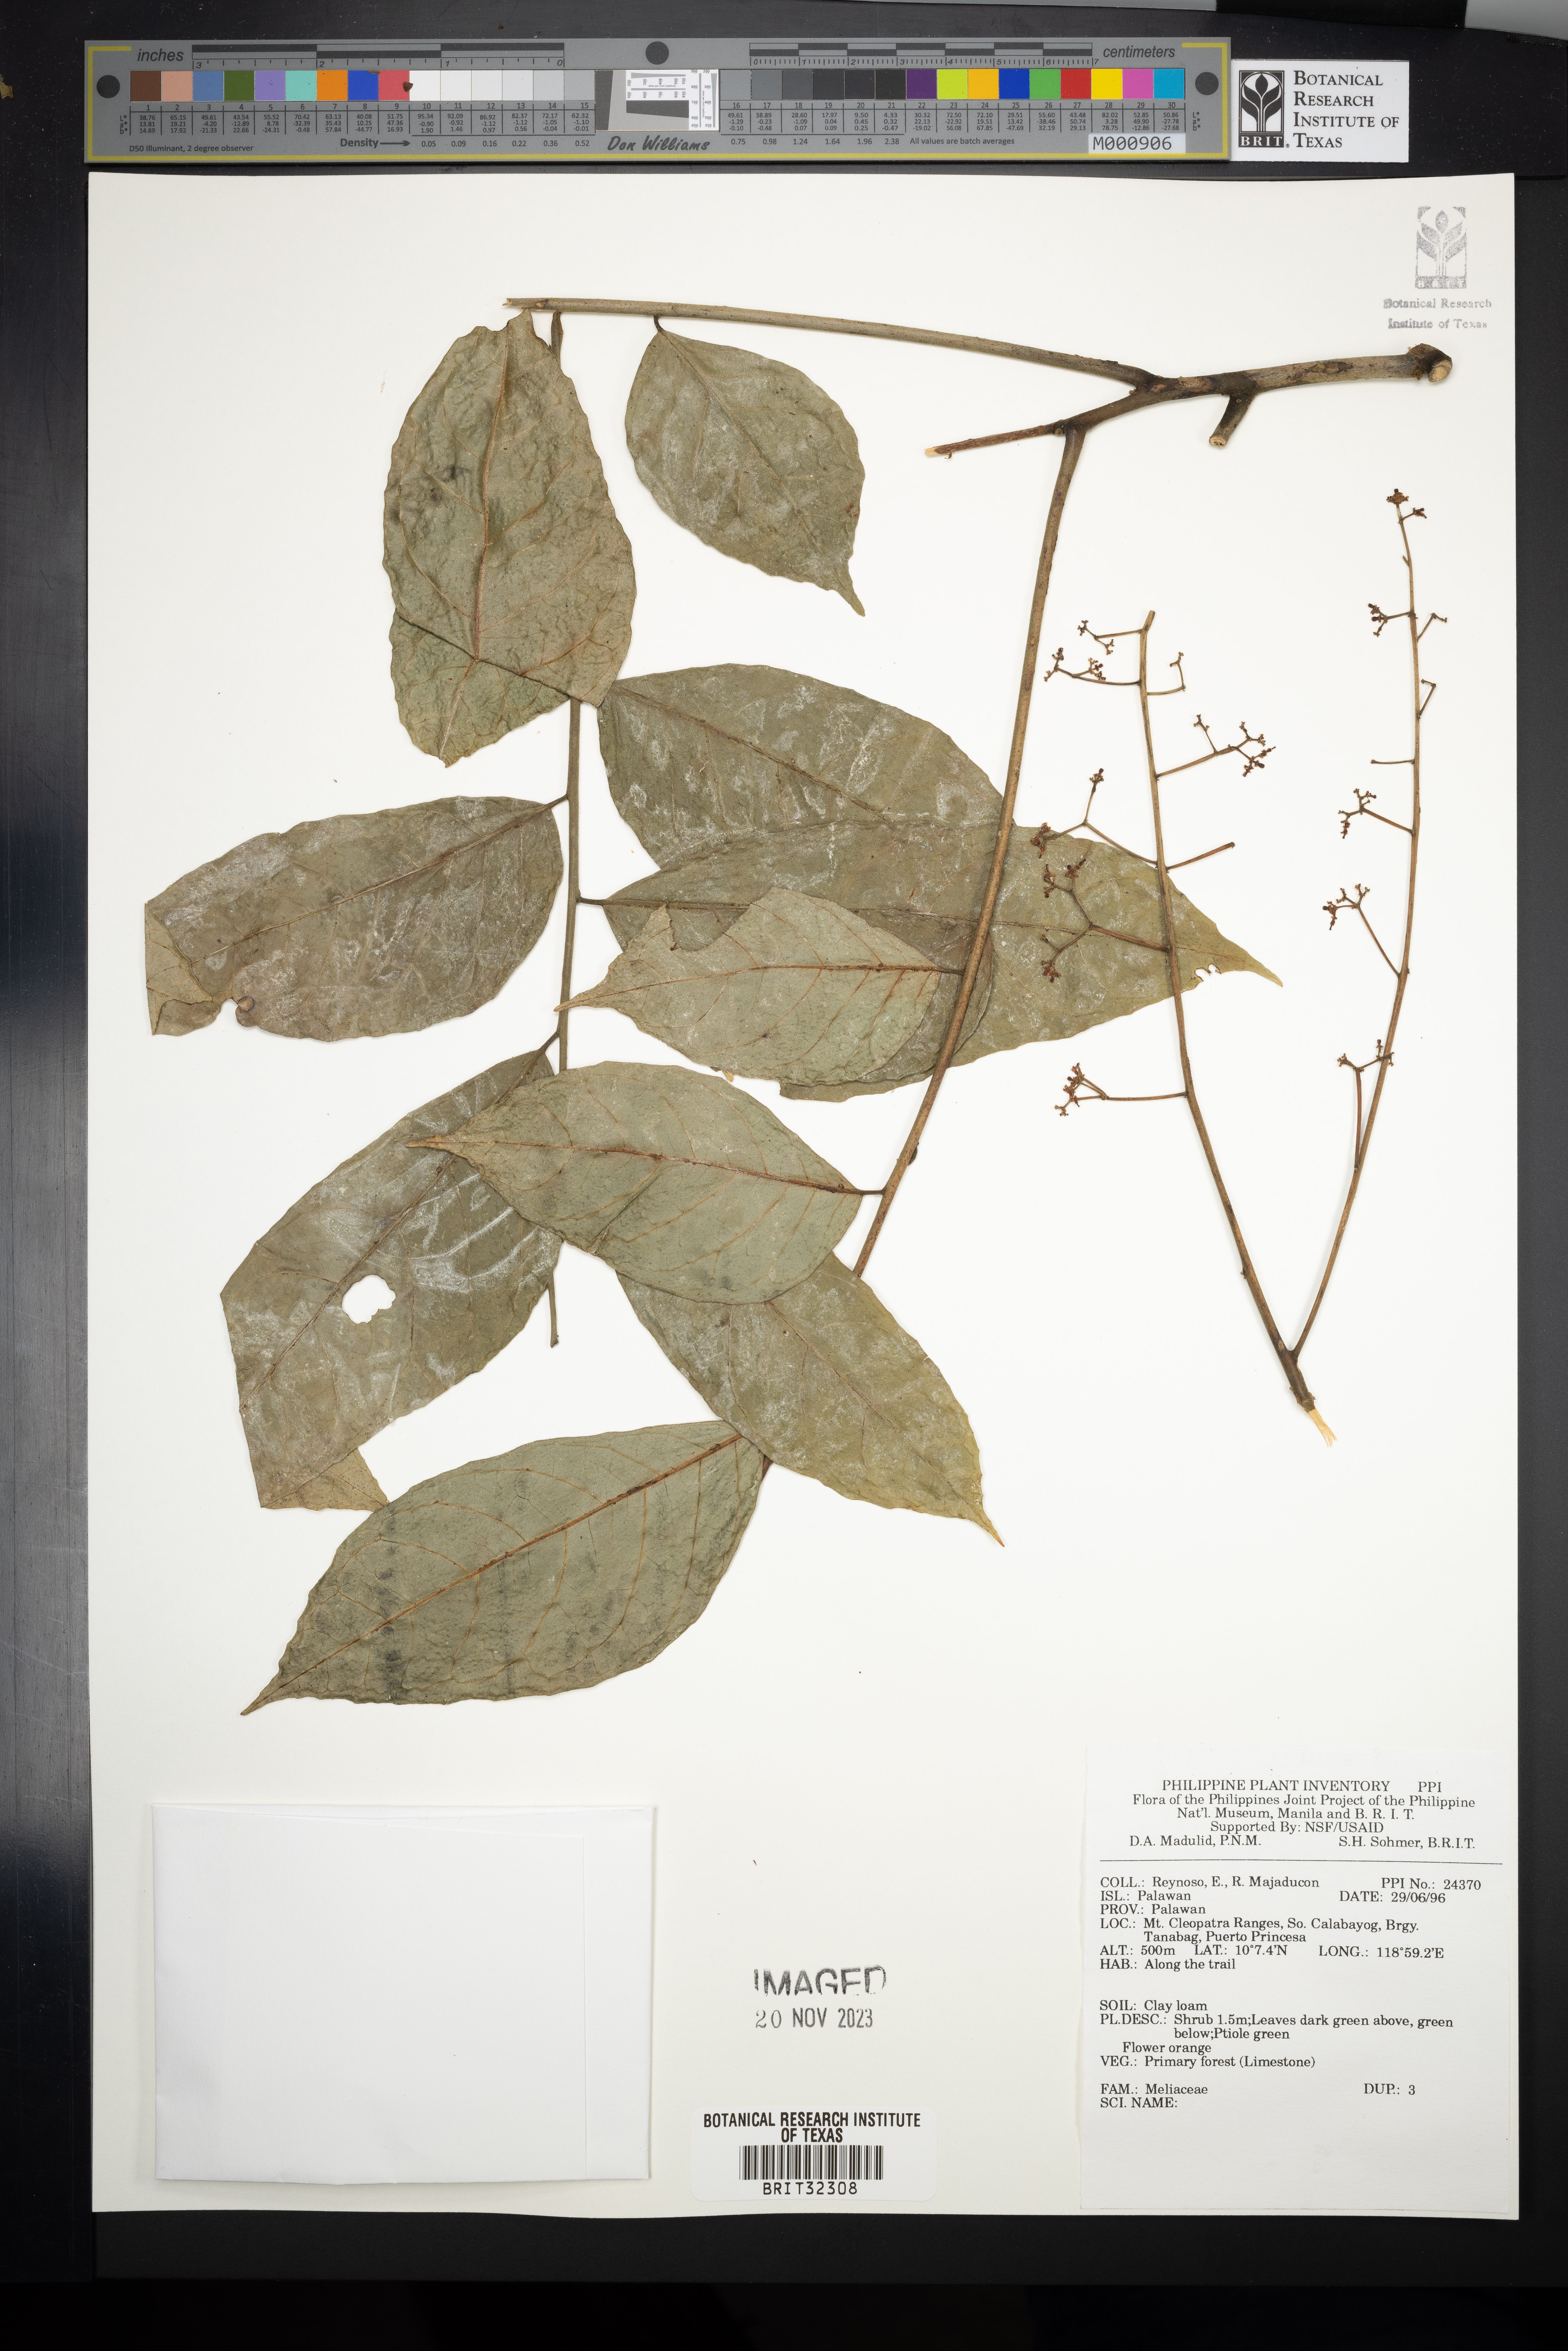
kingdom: Plantae
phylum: Tracheophyta
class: Magnoliopsida
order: Sapindales
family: Meliaceae
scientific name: Meliaceae
